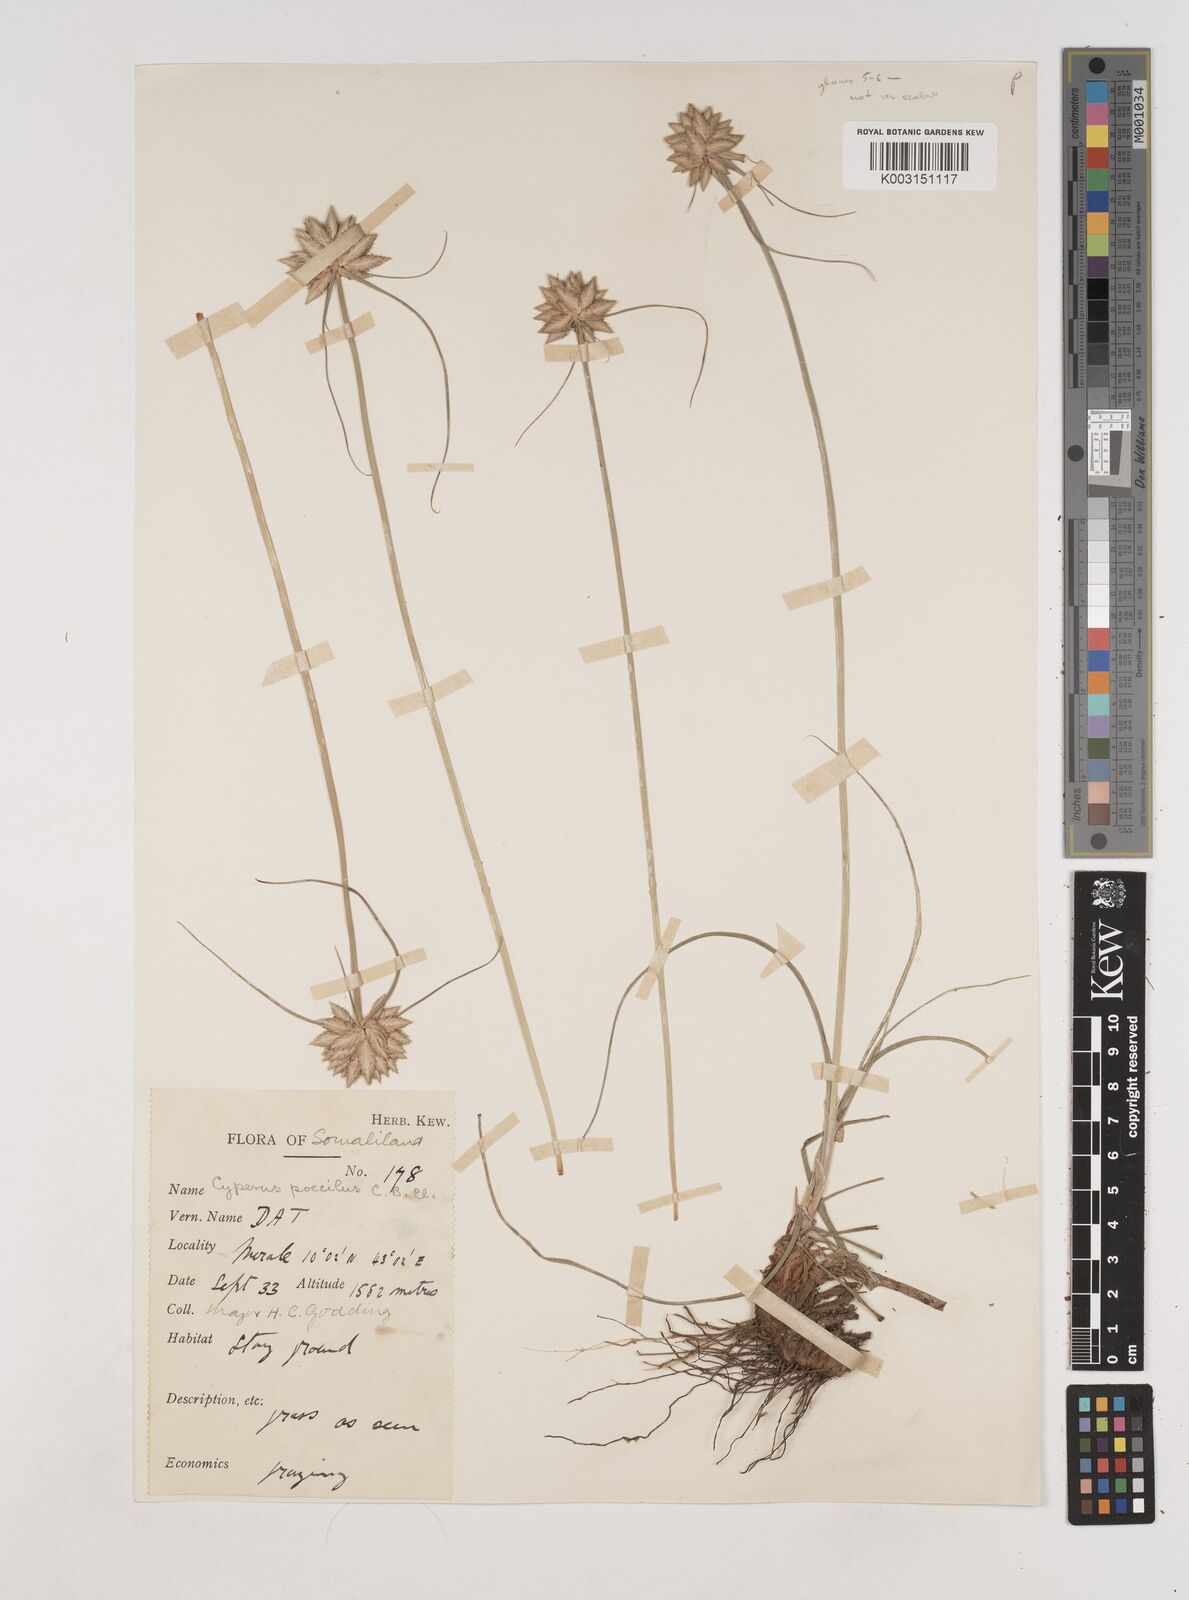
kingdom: Plantae
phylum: Tracheophyta
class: Liliopsida
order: Poales
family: Cyperaceae
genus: Cyperus
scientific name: Cyperus poecilus
